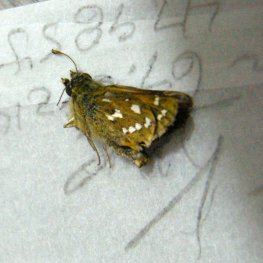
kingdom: Animalia
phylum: Arthropoda
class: Insecta
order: Lepidoptera
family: Hesperiidae
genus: Hesperia
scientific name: Hesperia comma
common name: Common Branded Skipper
